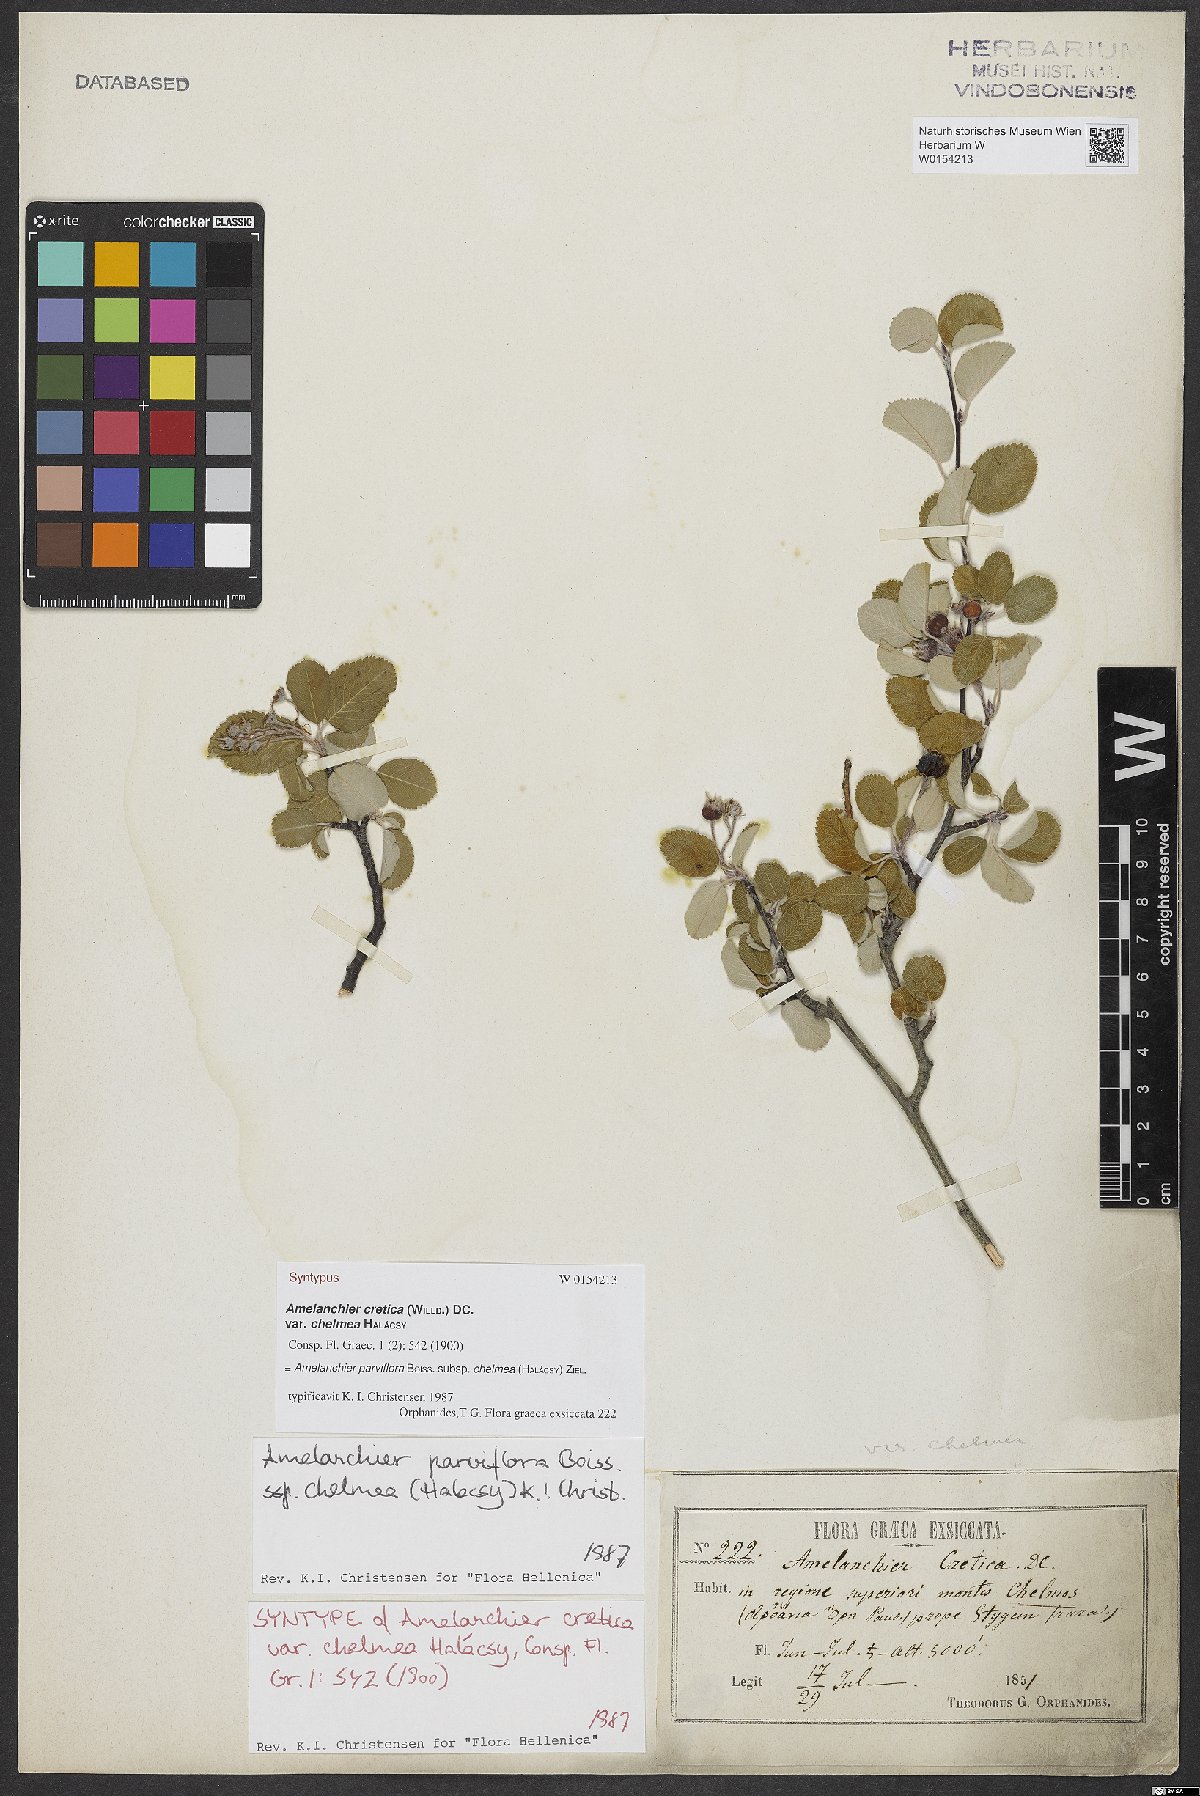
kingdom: Plantae
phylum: Tracheophyta
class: Magnoliopsida
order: Rosales
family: Rosaceae
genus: Amelanchier
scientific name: Amelanchier parviflora
